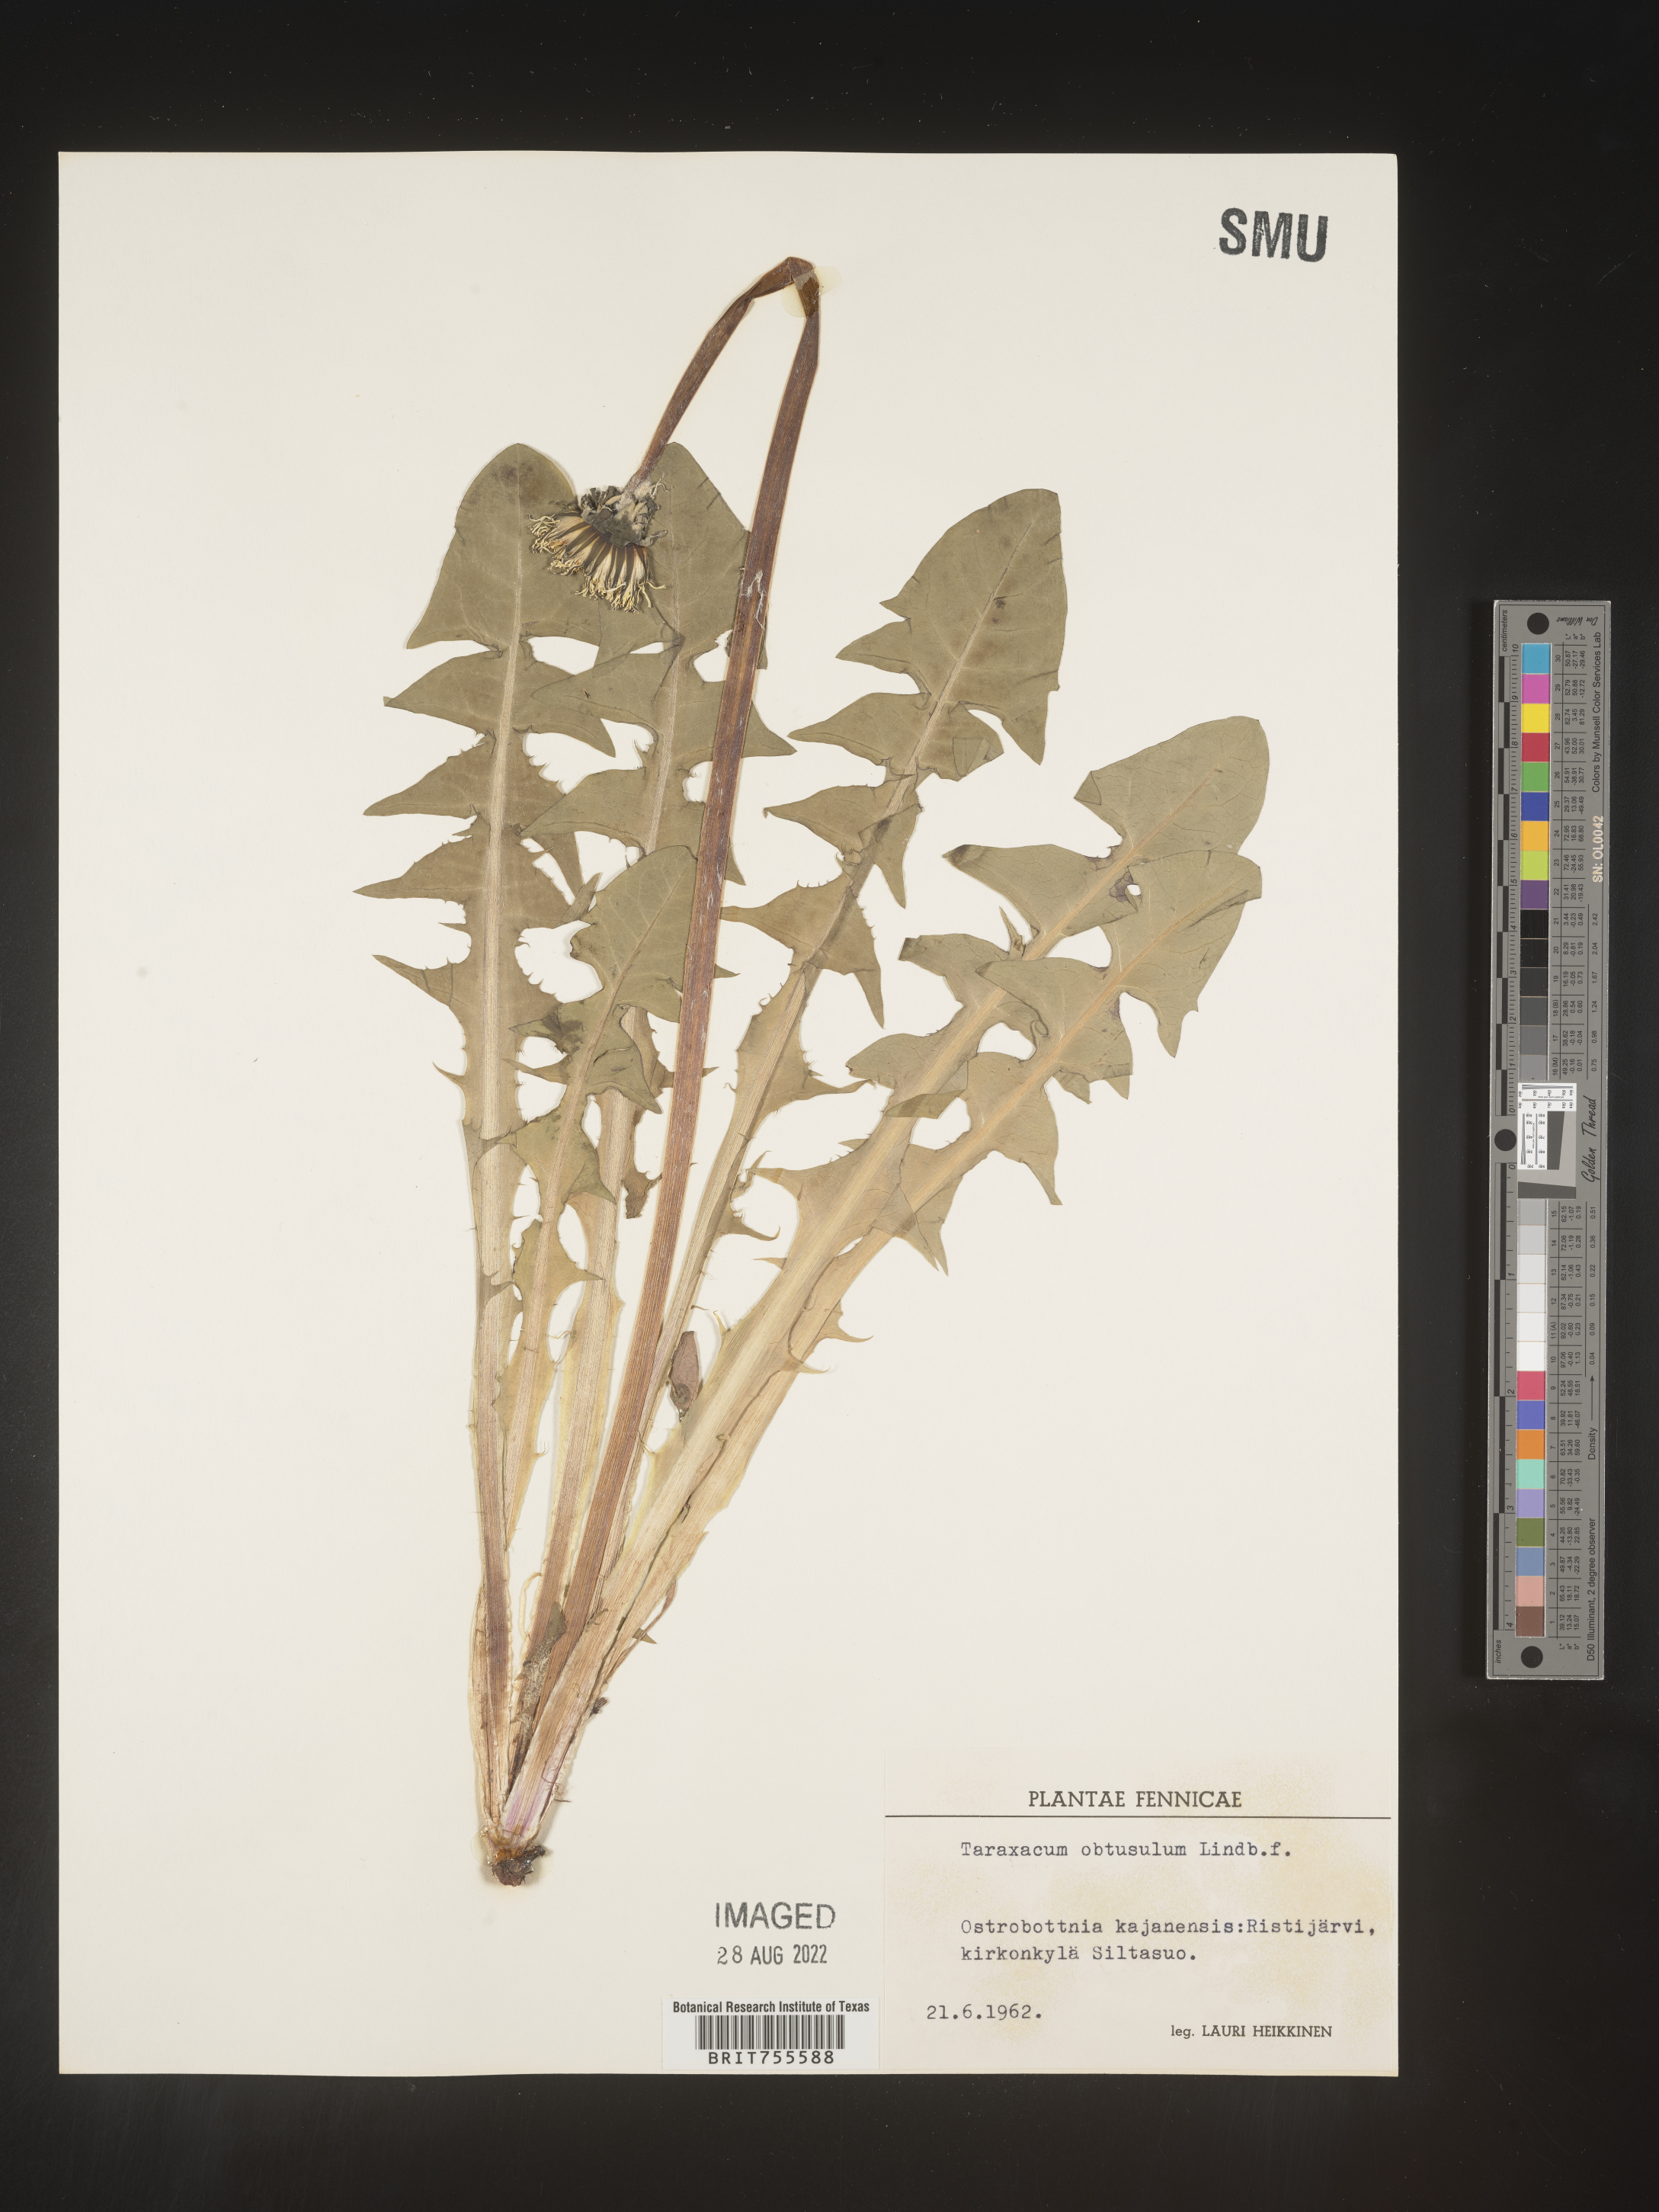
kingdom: Plantae
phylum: Tracheophyta
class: Magnoliopsida
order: Asterales
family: Asteraceae
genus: Taraxacum
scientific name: Taraxacum
